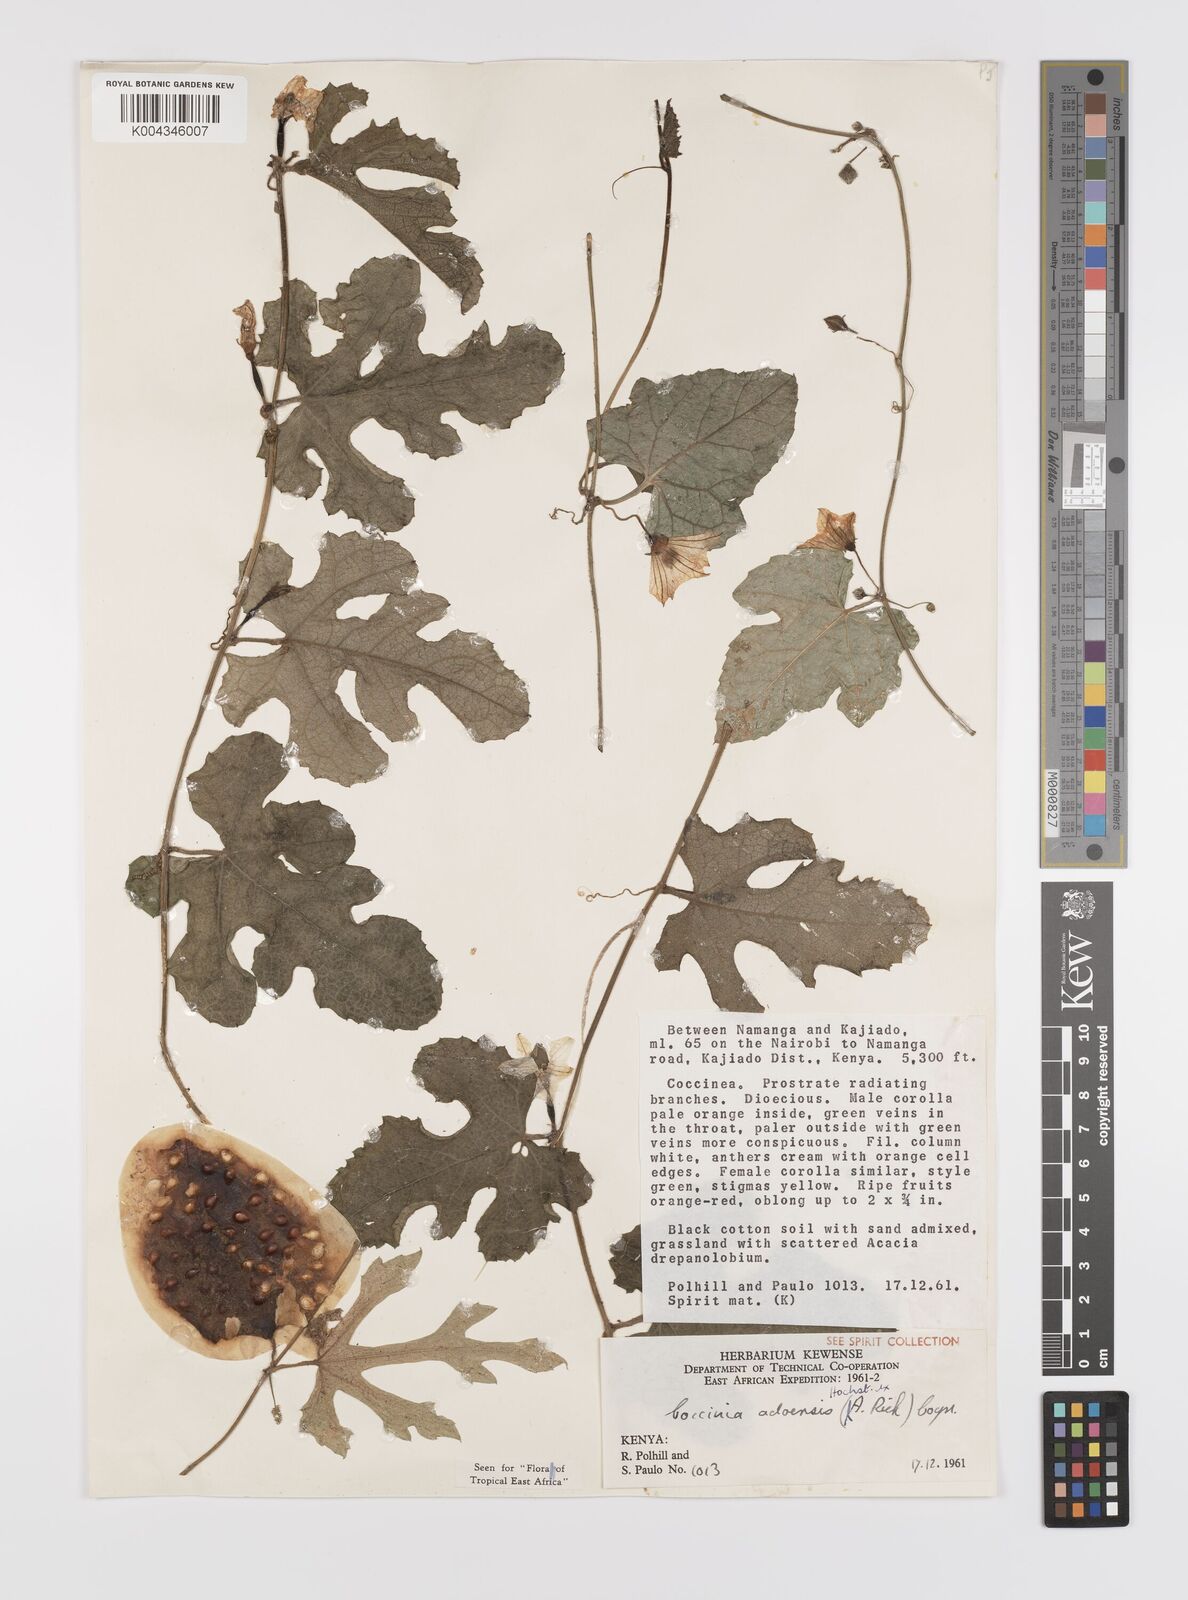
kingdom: Plantae
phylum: Tracheophyta
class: Magnoliopsida
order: Cucurbitales
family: Cucurbitaceae
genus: Coccinia
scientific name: Coccinia adoensis
